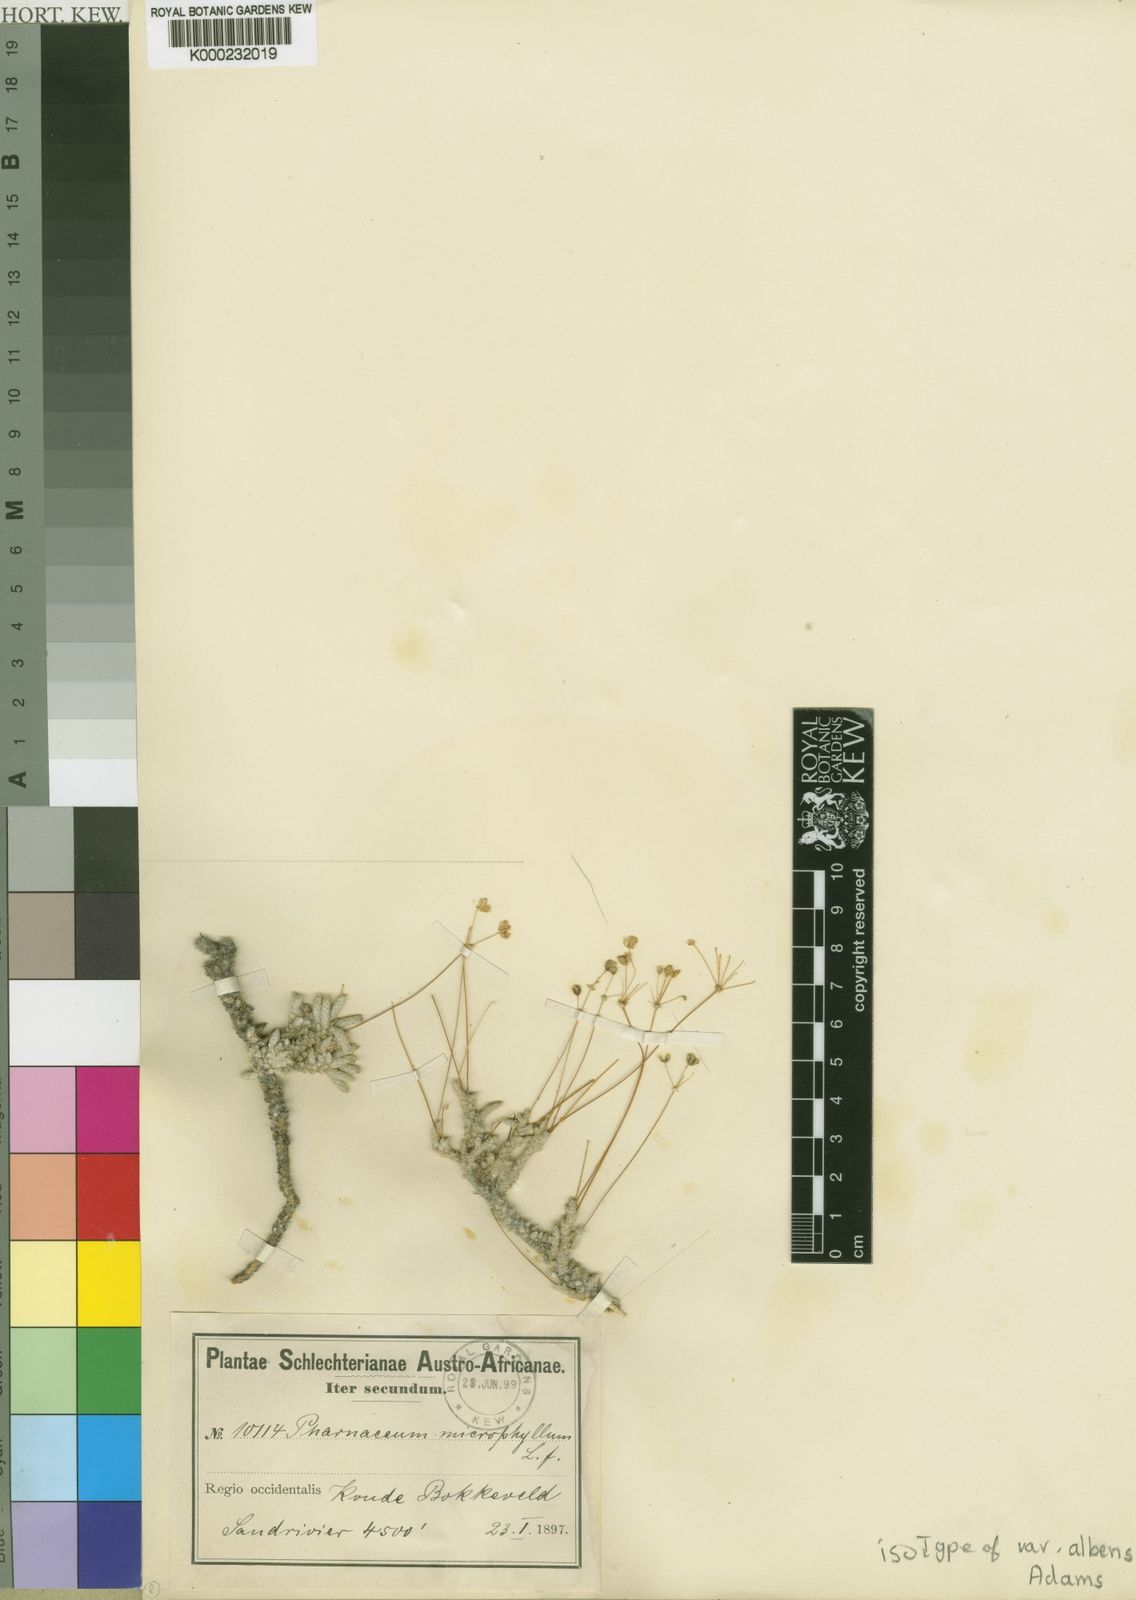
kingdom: Plantae
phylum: Tracheophyta
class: Magnoliopsida
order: Caryophyllales
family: Molluginaceae
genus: Pharnaceum
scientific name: Pharnaceum microphyllum
